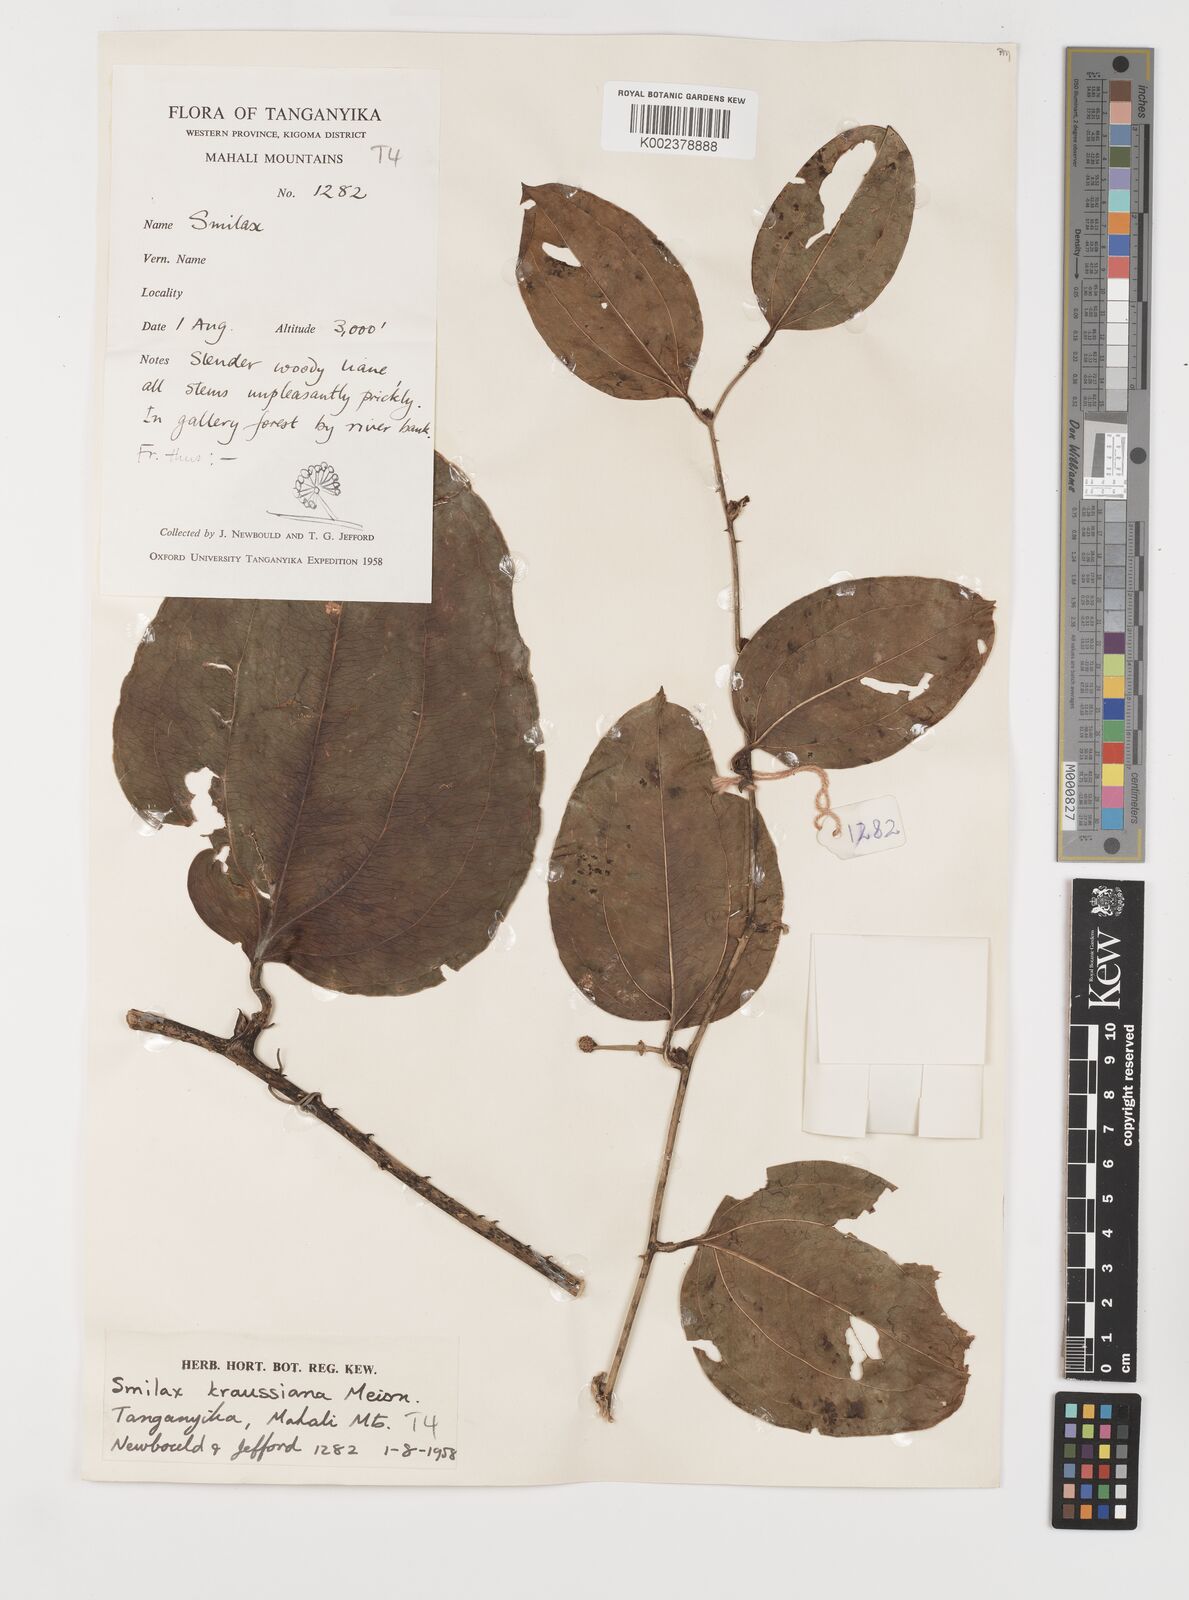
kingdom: Plantae
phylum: Tracheophyta
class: Liliopsida
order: Liliales
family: Smilacaceae
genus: Smilax
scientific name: Smilax anceps
